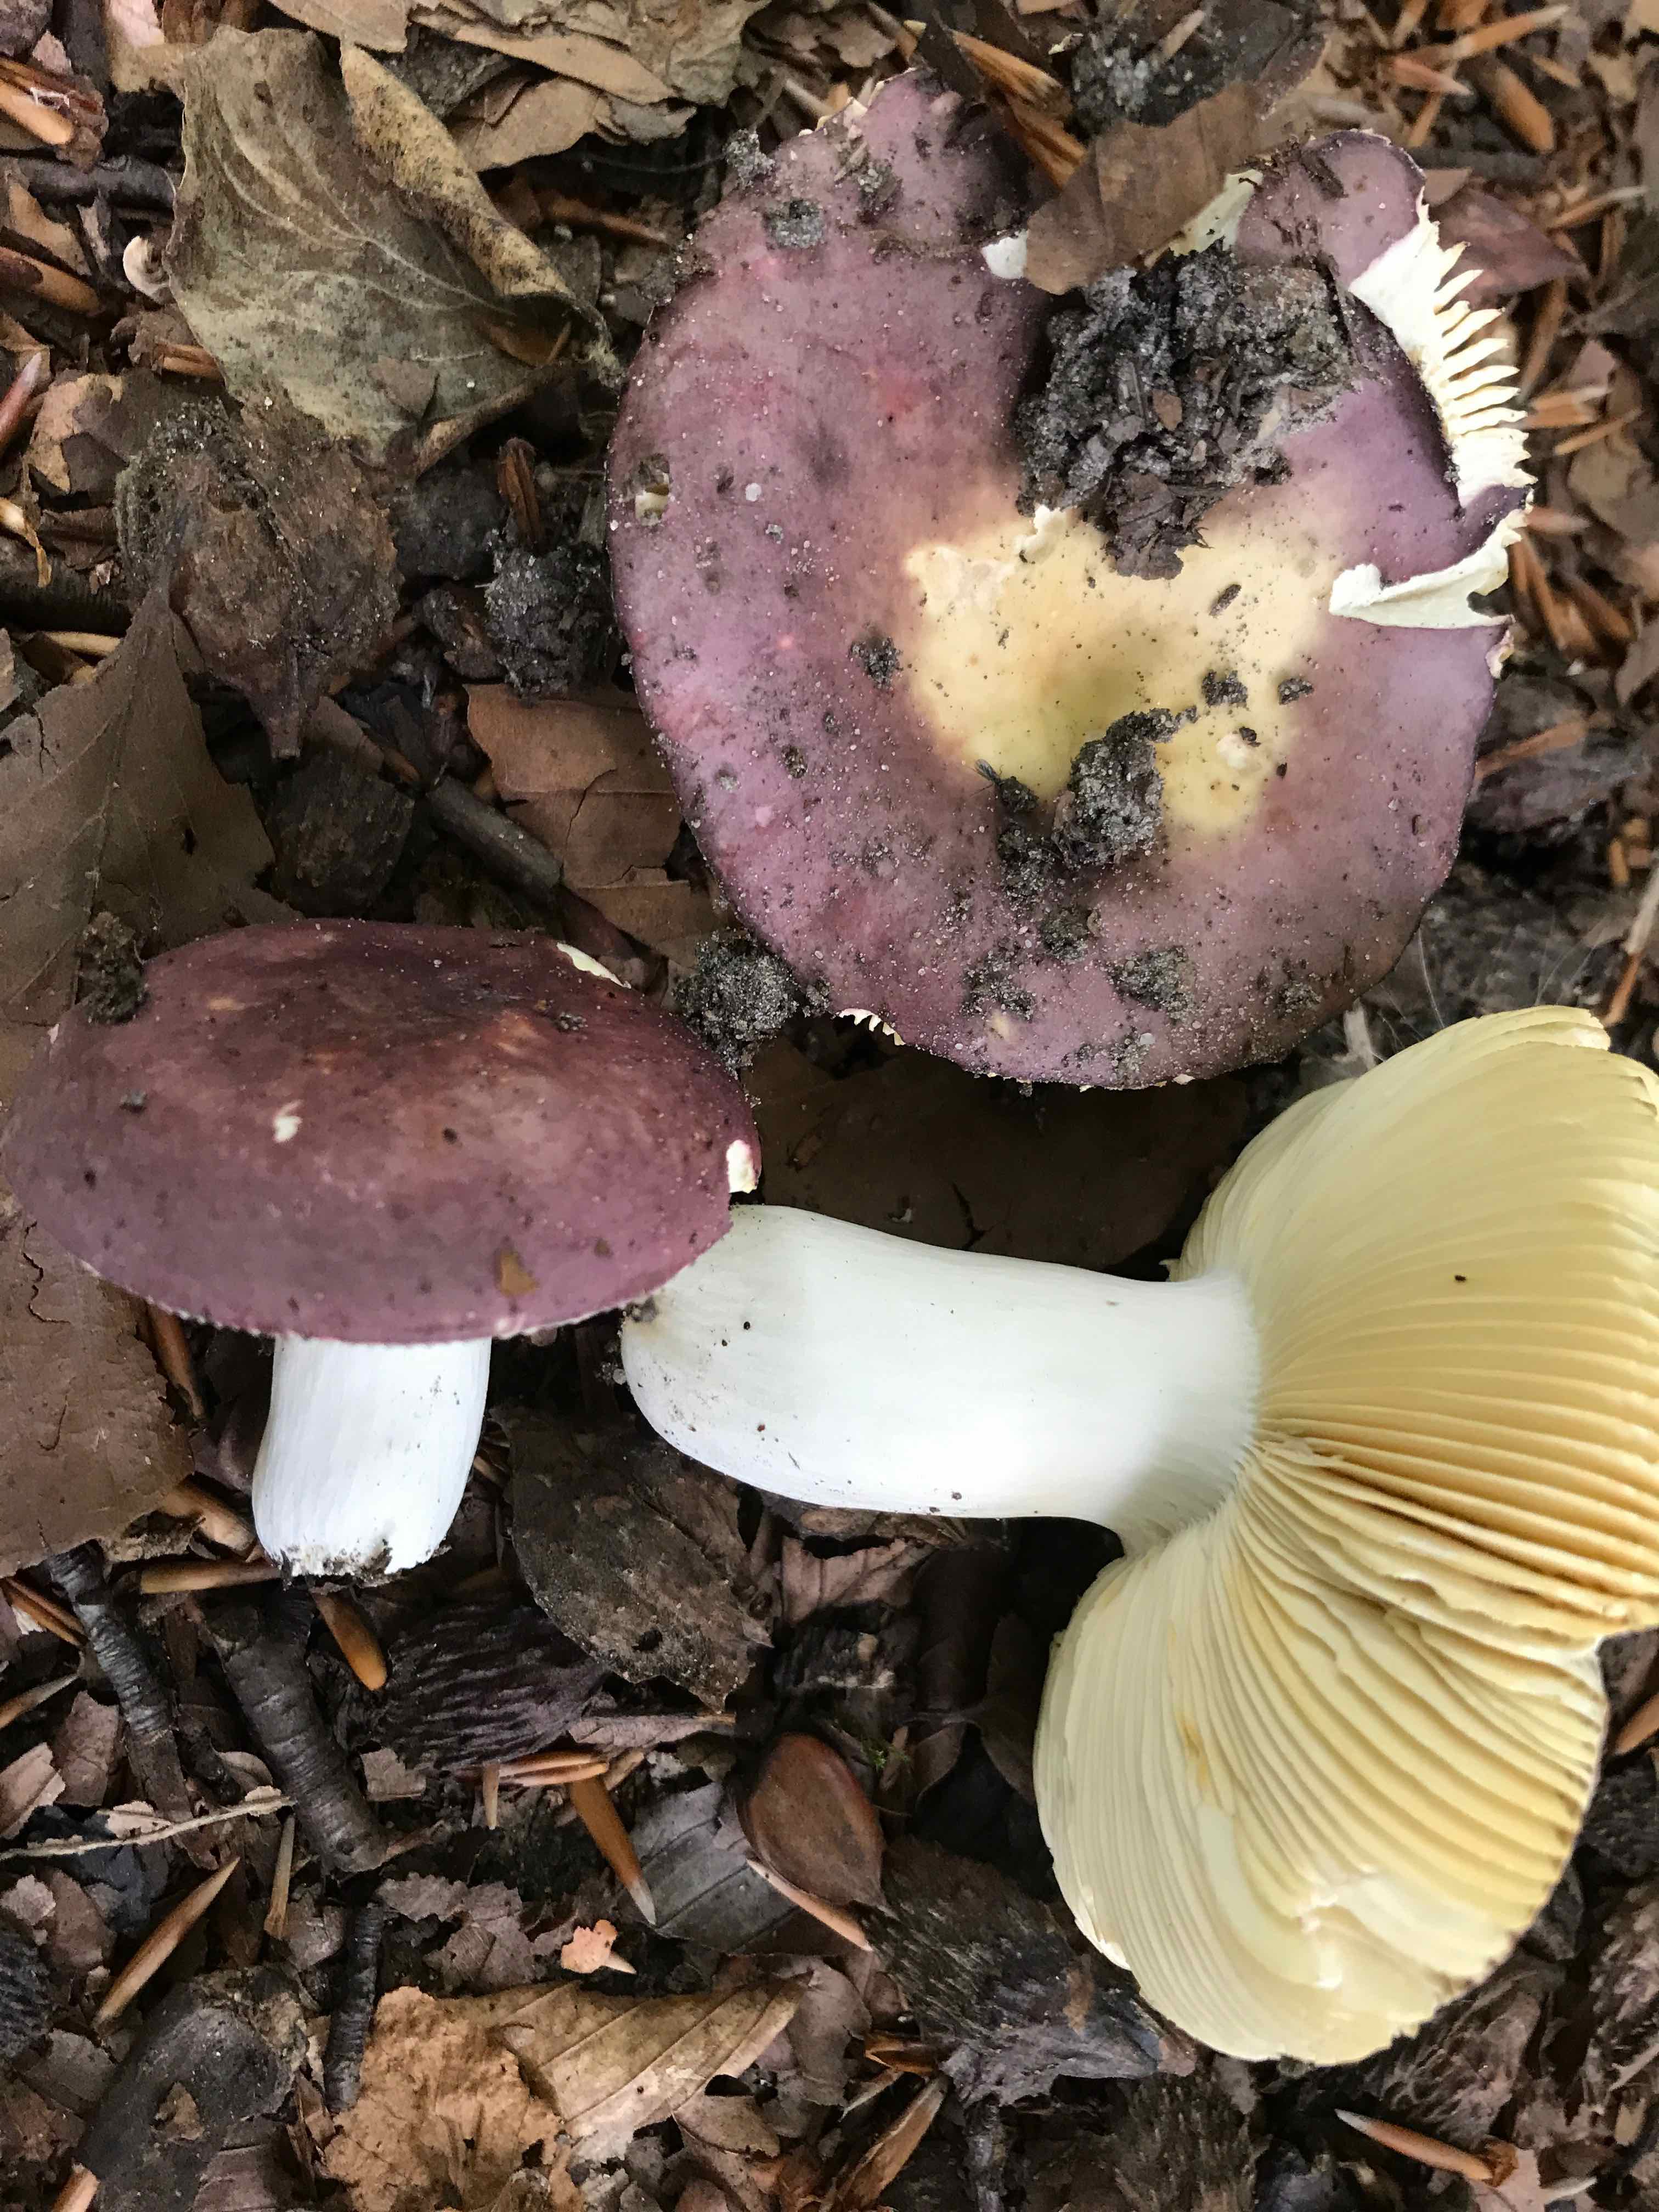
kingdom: Fungi
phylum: Basidiomycota
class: Agaricomycetes
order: Russulales
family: Russulaceae
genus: Russula
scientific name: Russula romellii
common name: romells skørhat
